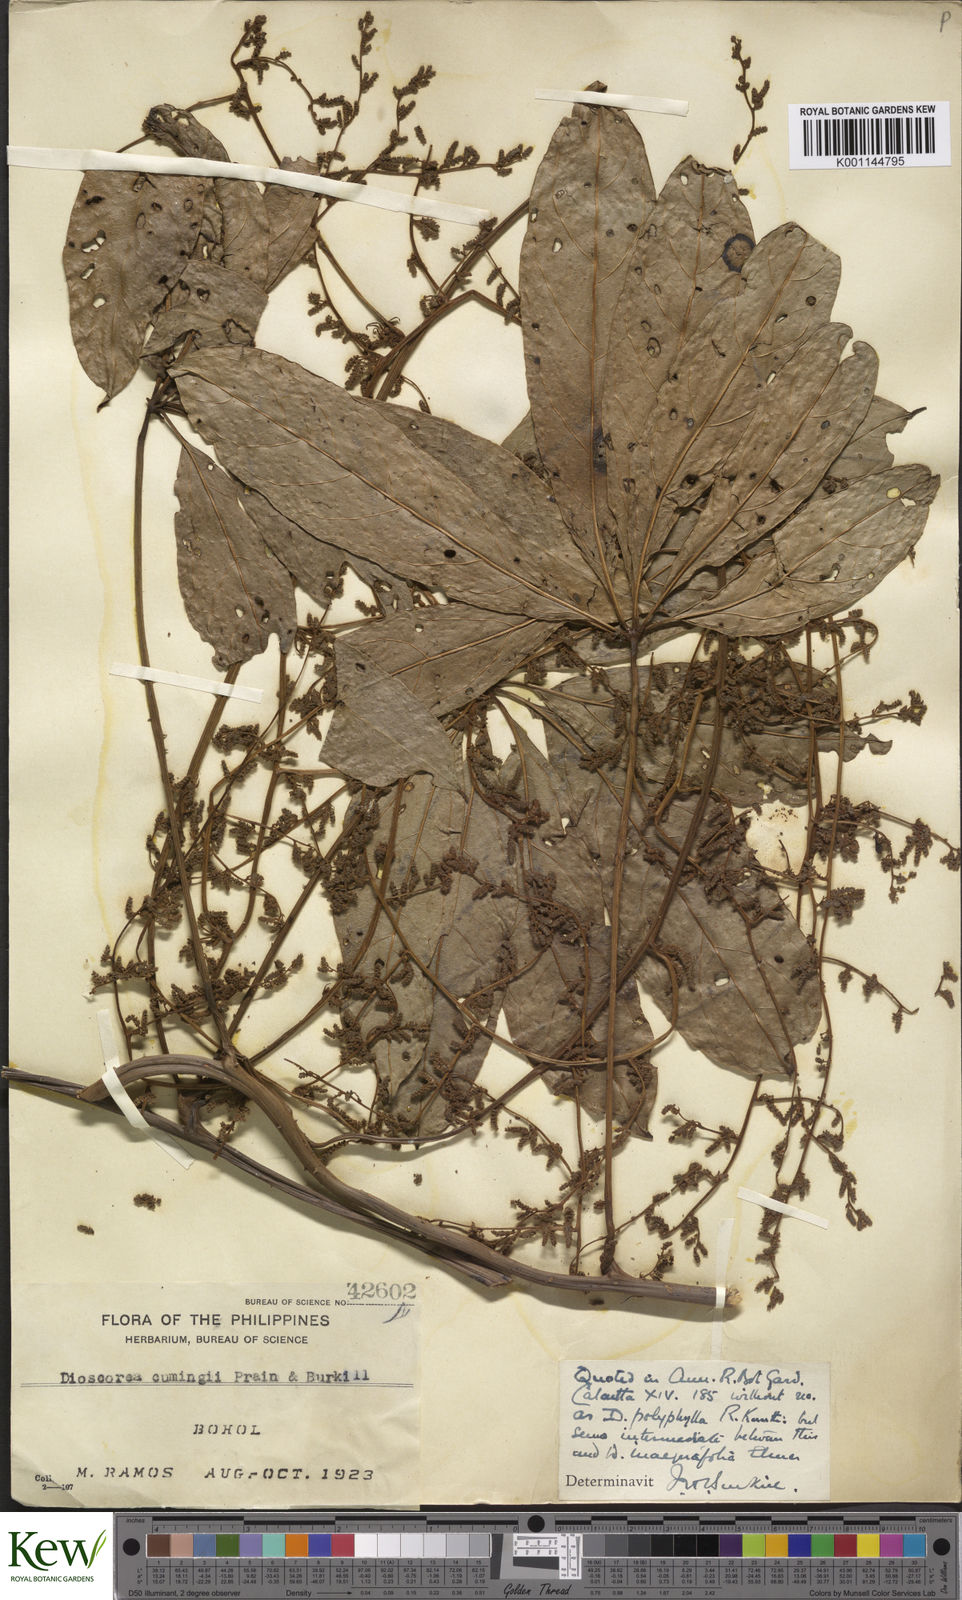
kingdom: Plantae
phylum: Tracheophyta
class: Liliopsida
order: Dioscoreales
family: Dioscoreaceae
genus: Dioscorea
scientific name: Dioscorea cumingii
